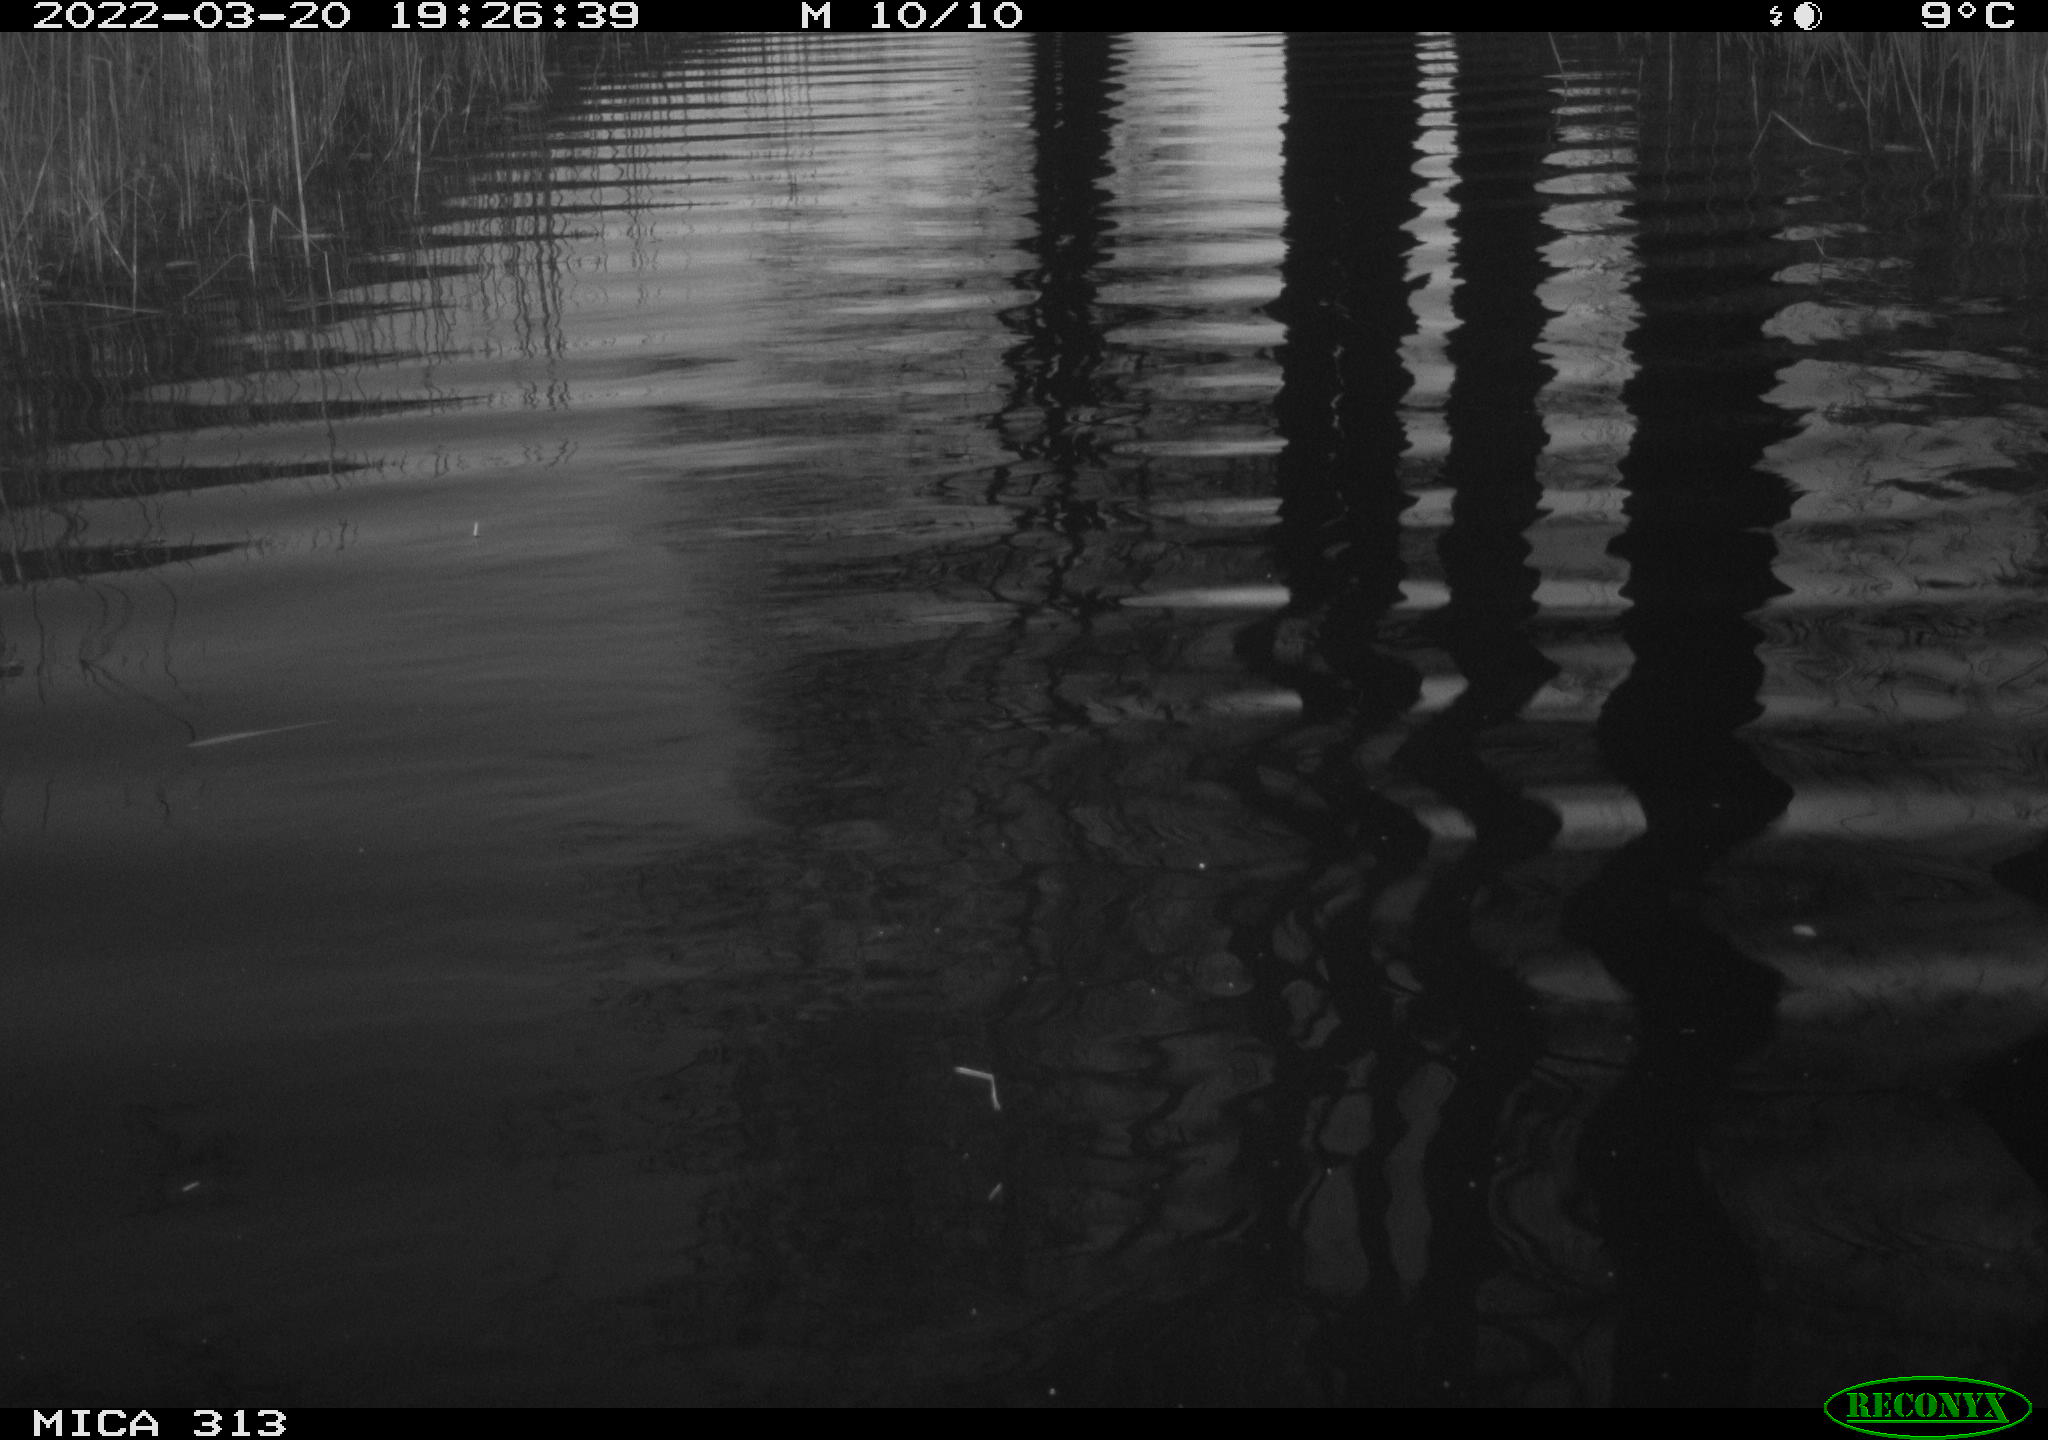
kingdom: Animalia
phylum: Chordata
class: Aves
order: Anseriformes
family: Anatidae
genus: Anas
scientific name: Anas platyrhynchos
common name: Mallard
